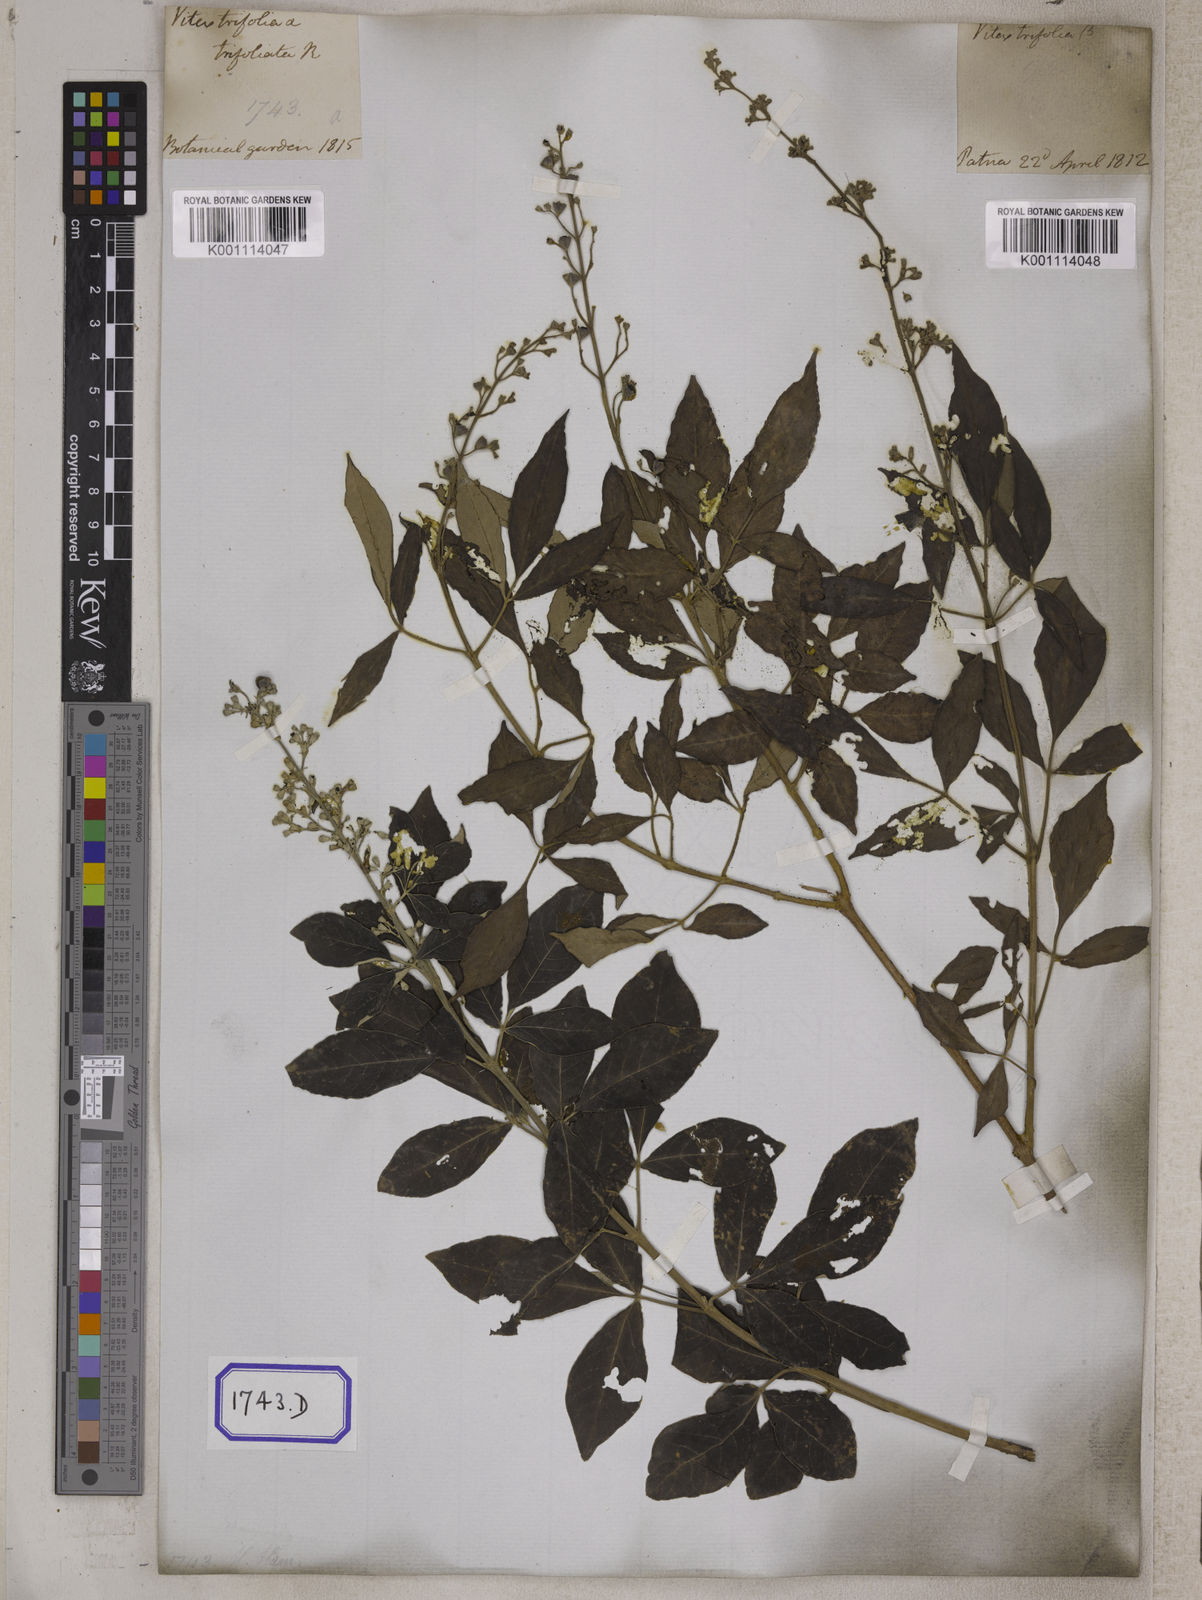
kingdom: Plantae
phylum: Tracheophyta
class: Magnoliopsida
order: Lamiales
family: Lamiaceae
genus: Vitex
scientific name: Vitex trifolia
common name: Simpleleaf chastetree
